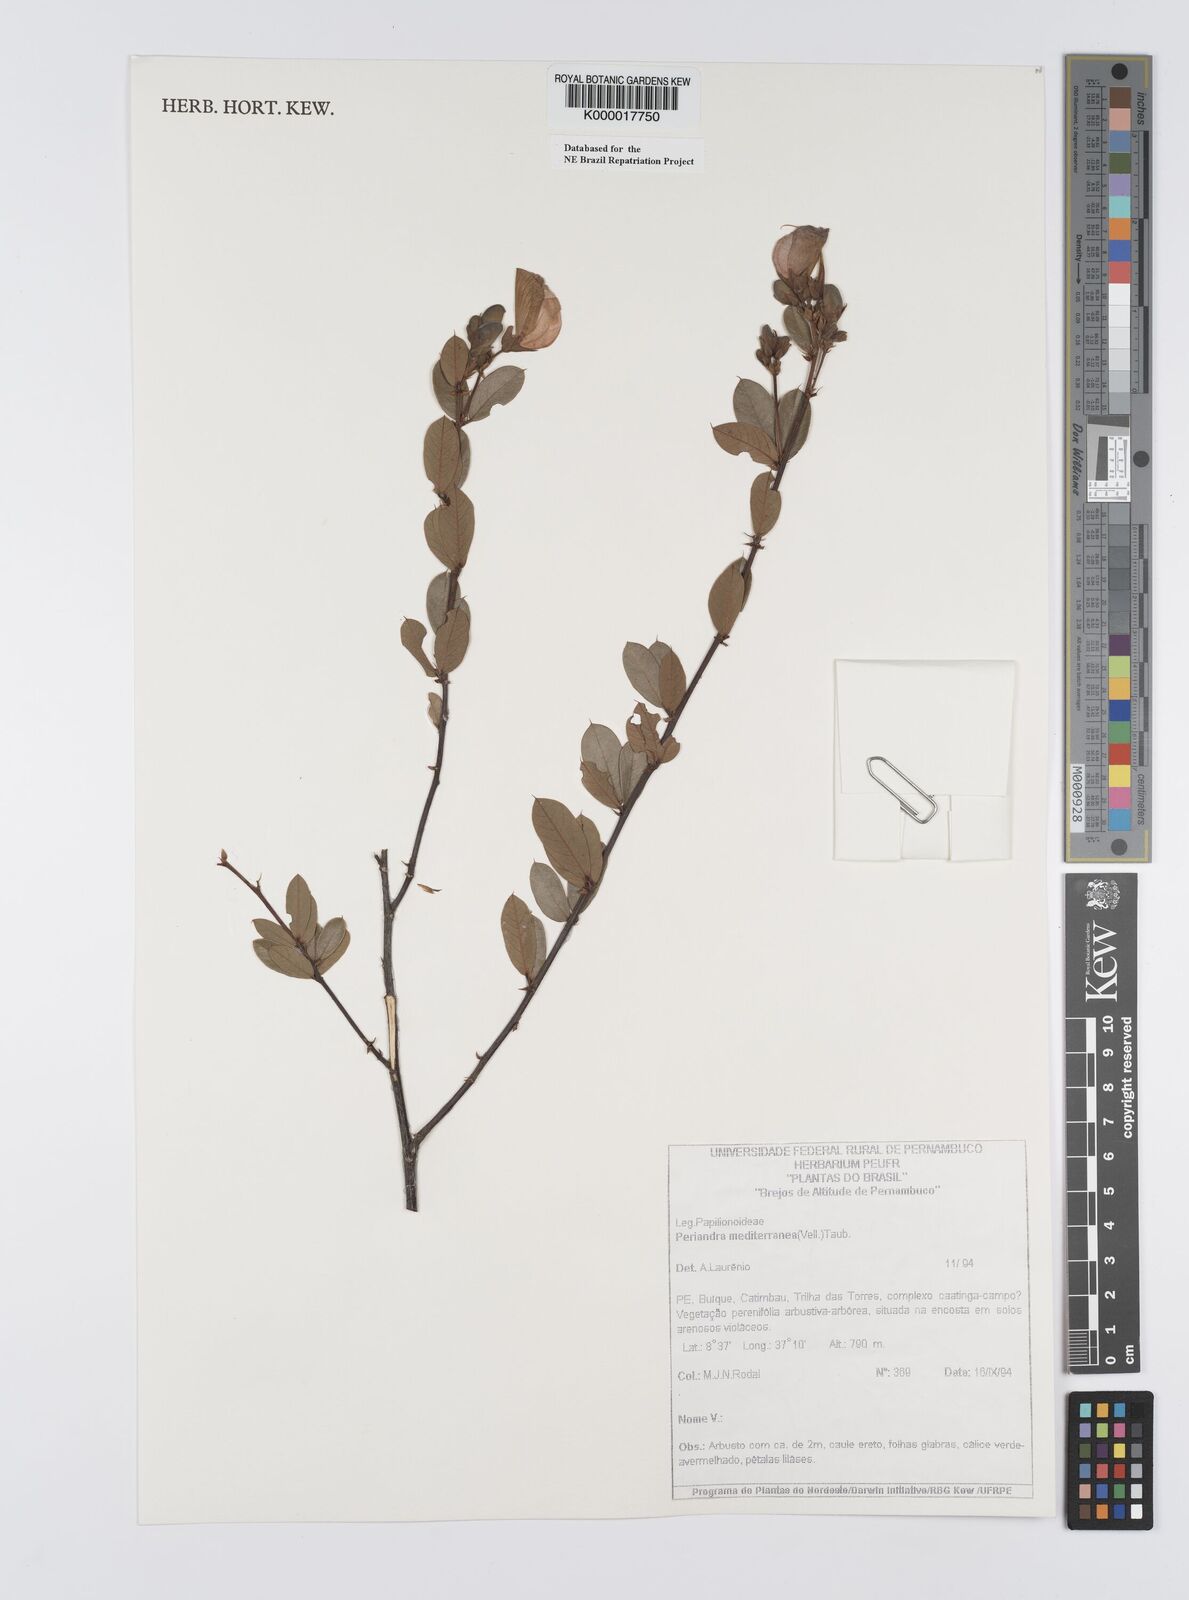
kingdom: Plantae
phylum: Tracheophyta
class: Magnoliopsida
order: Fabales
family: Fabaceae
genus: Periandra
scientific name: Periandra mediterranea
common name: Brazilian licorice
